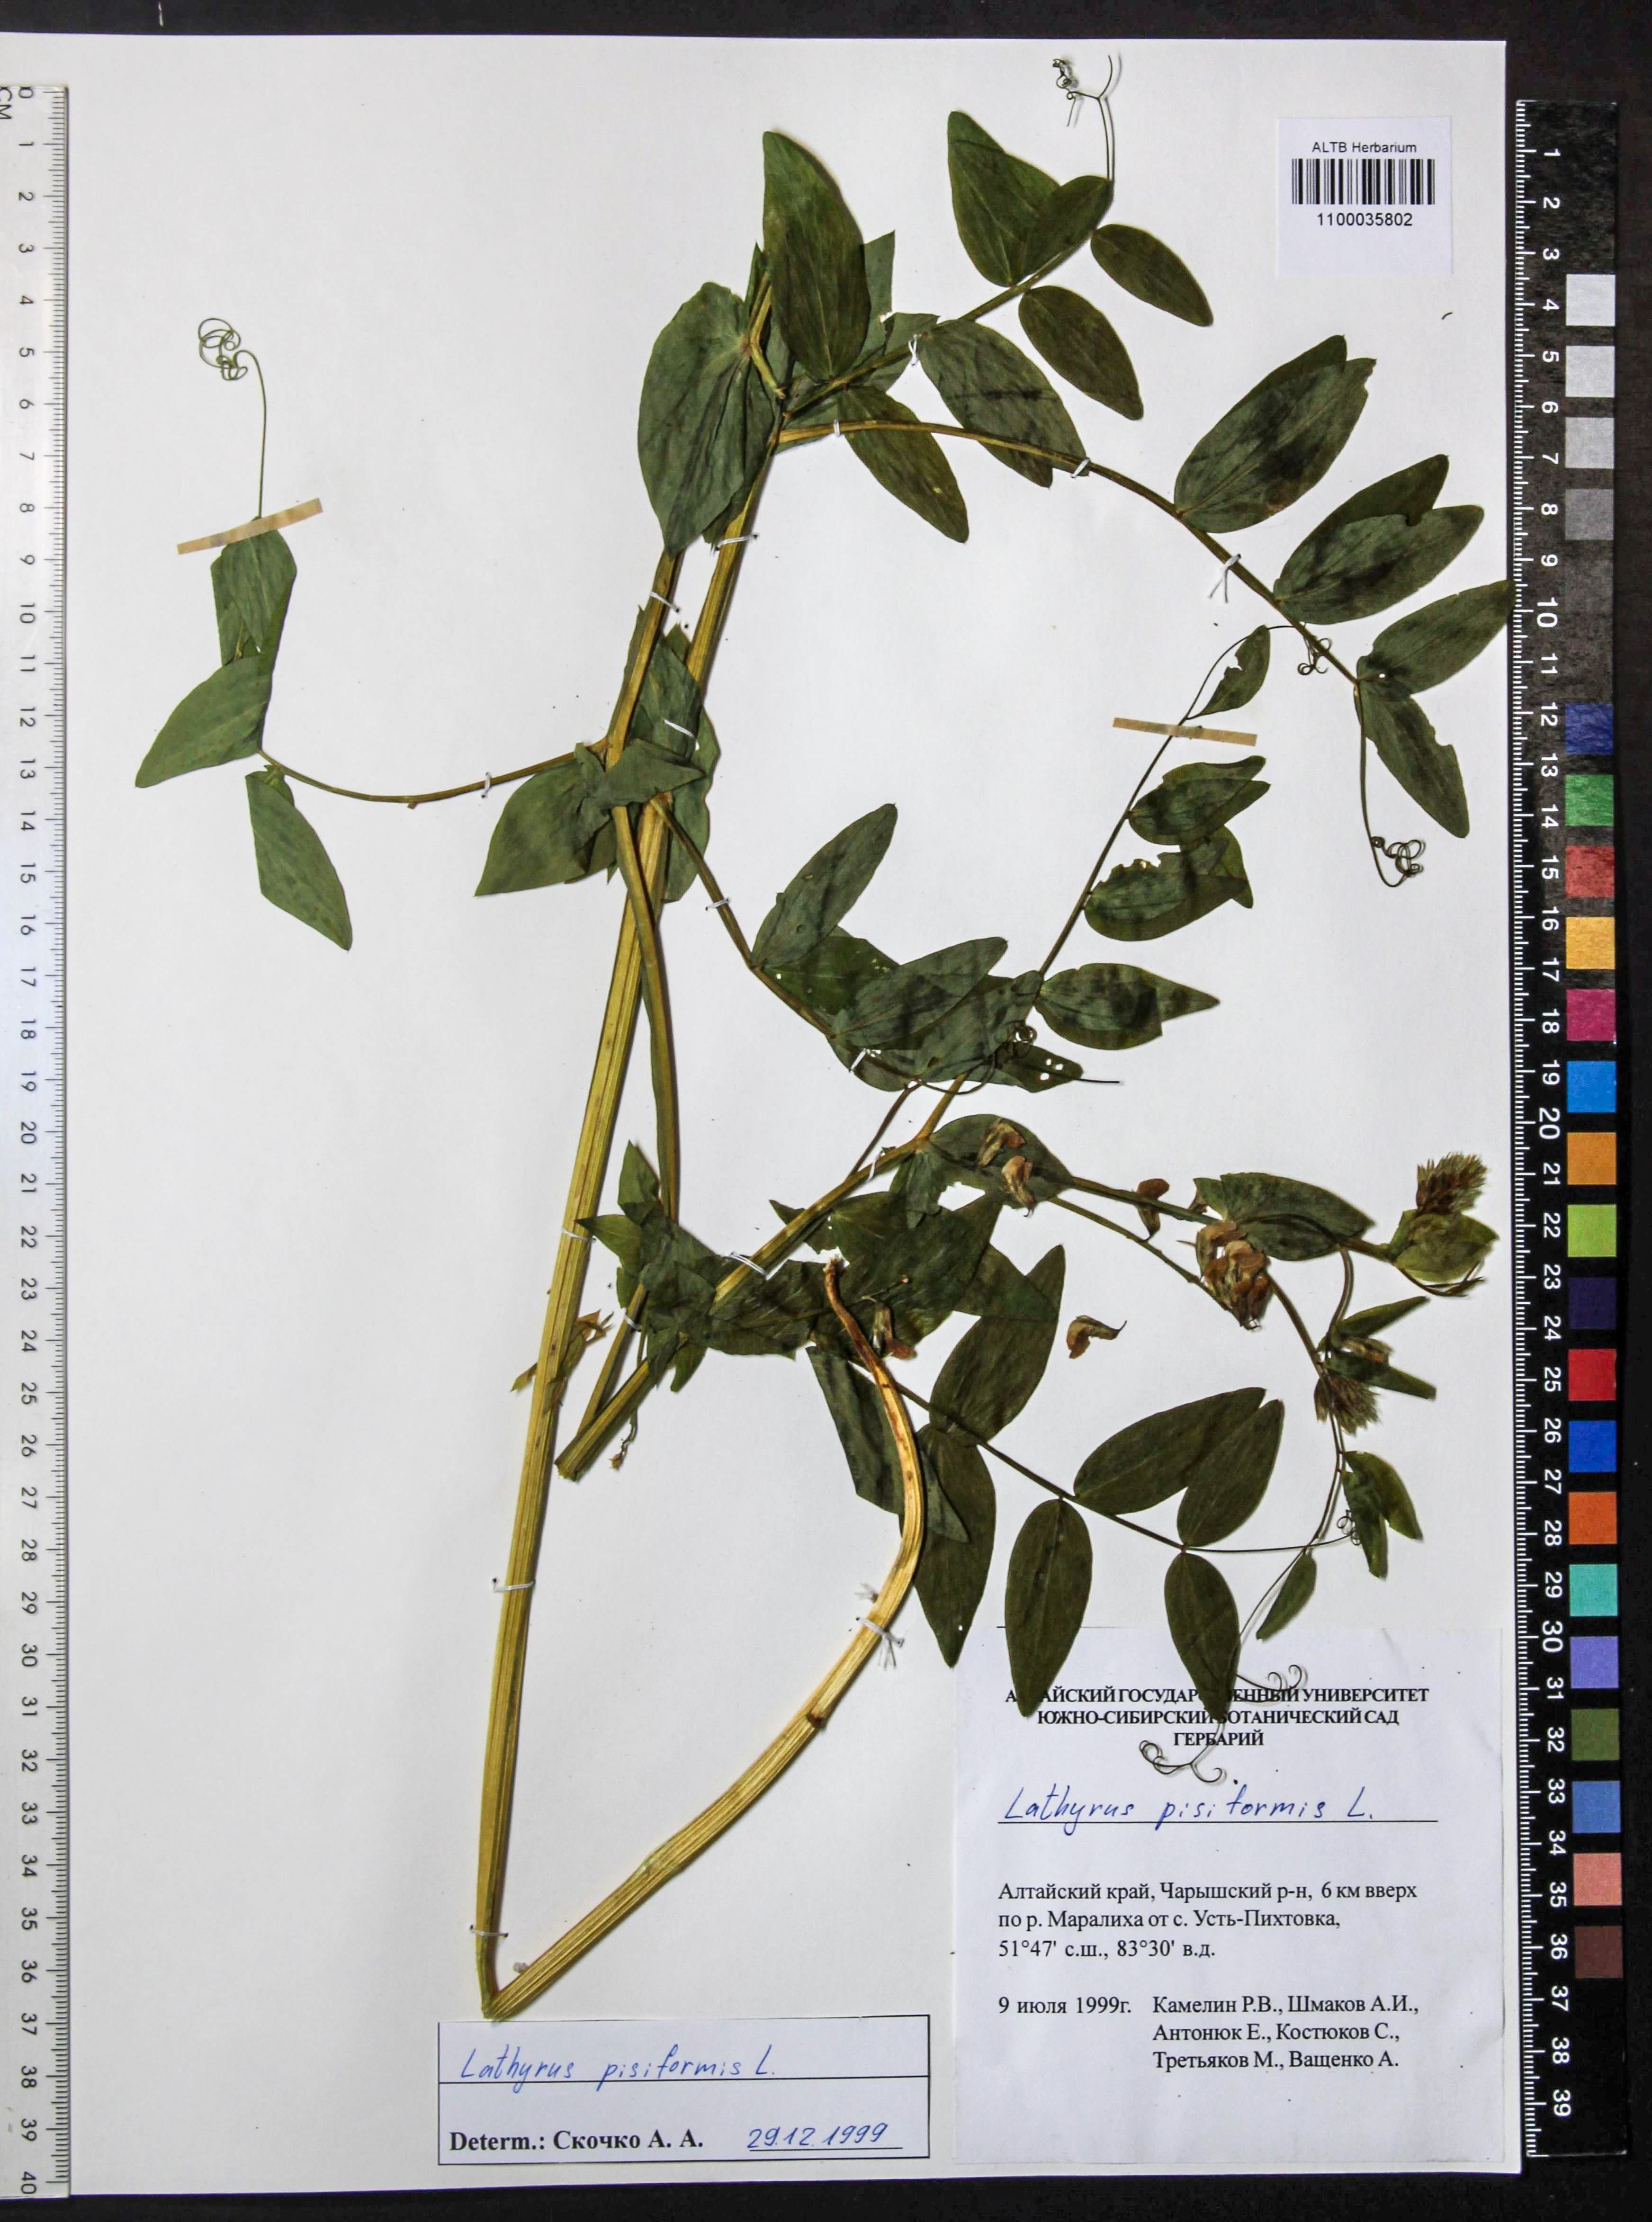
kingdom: Plantae
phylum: Tracheophyta
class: Magnoliopsida
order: Fabales
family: Fabaceae
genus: Lathyrus
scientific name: Lathyrus pisiformis
